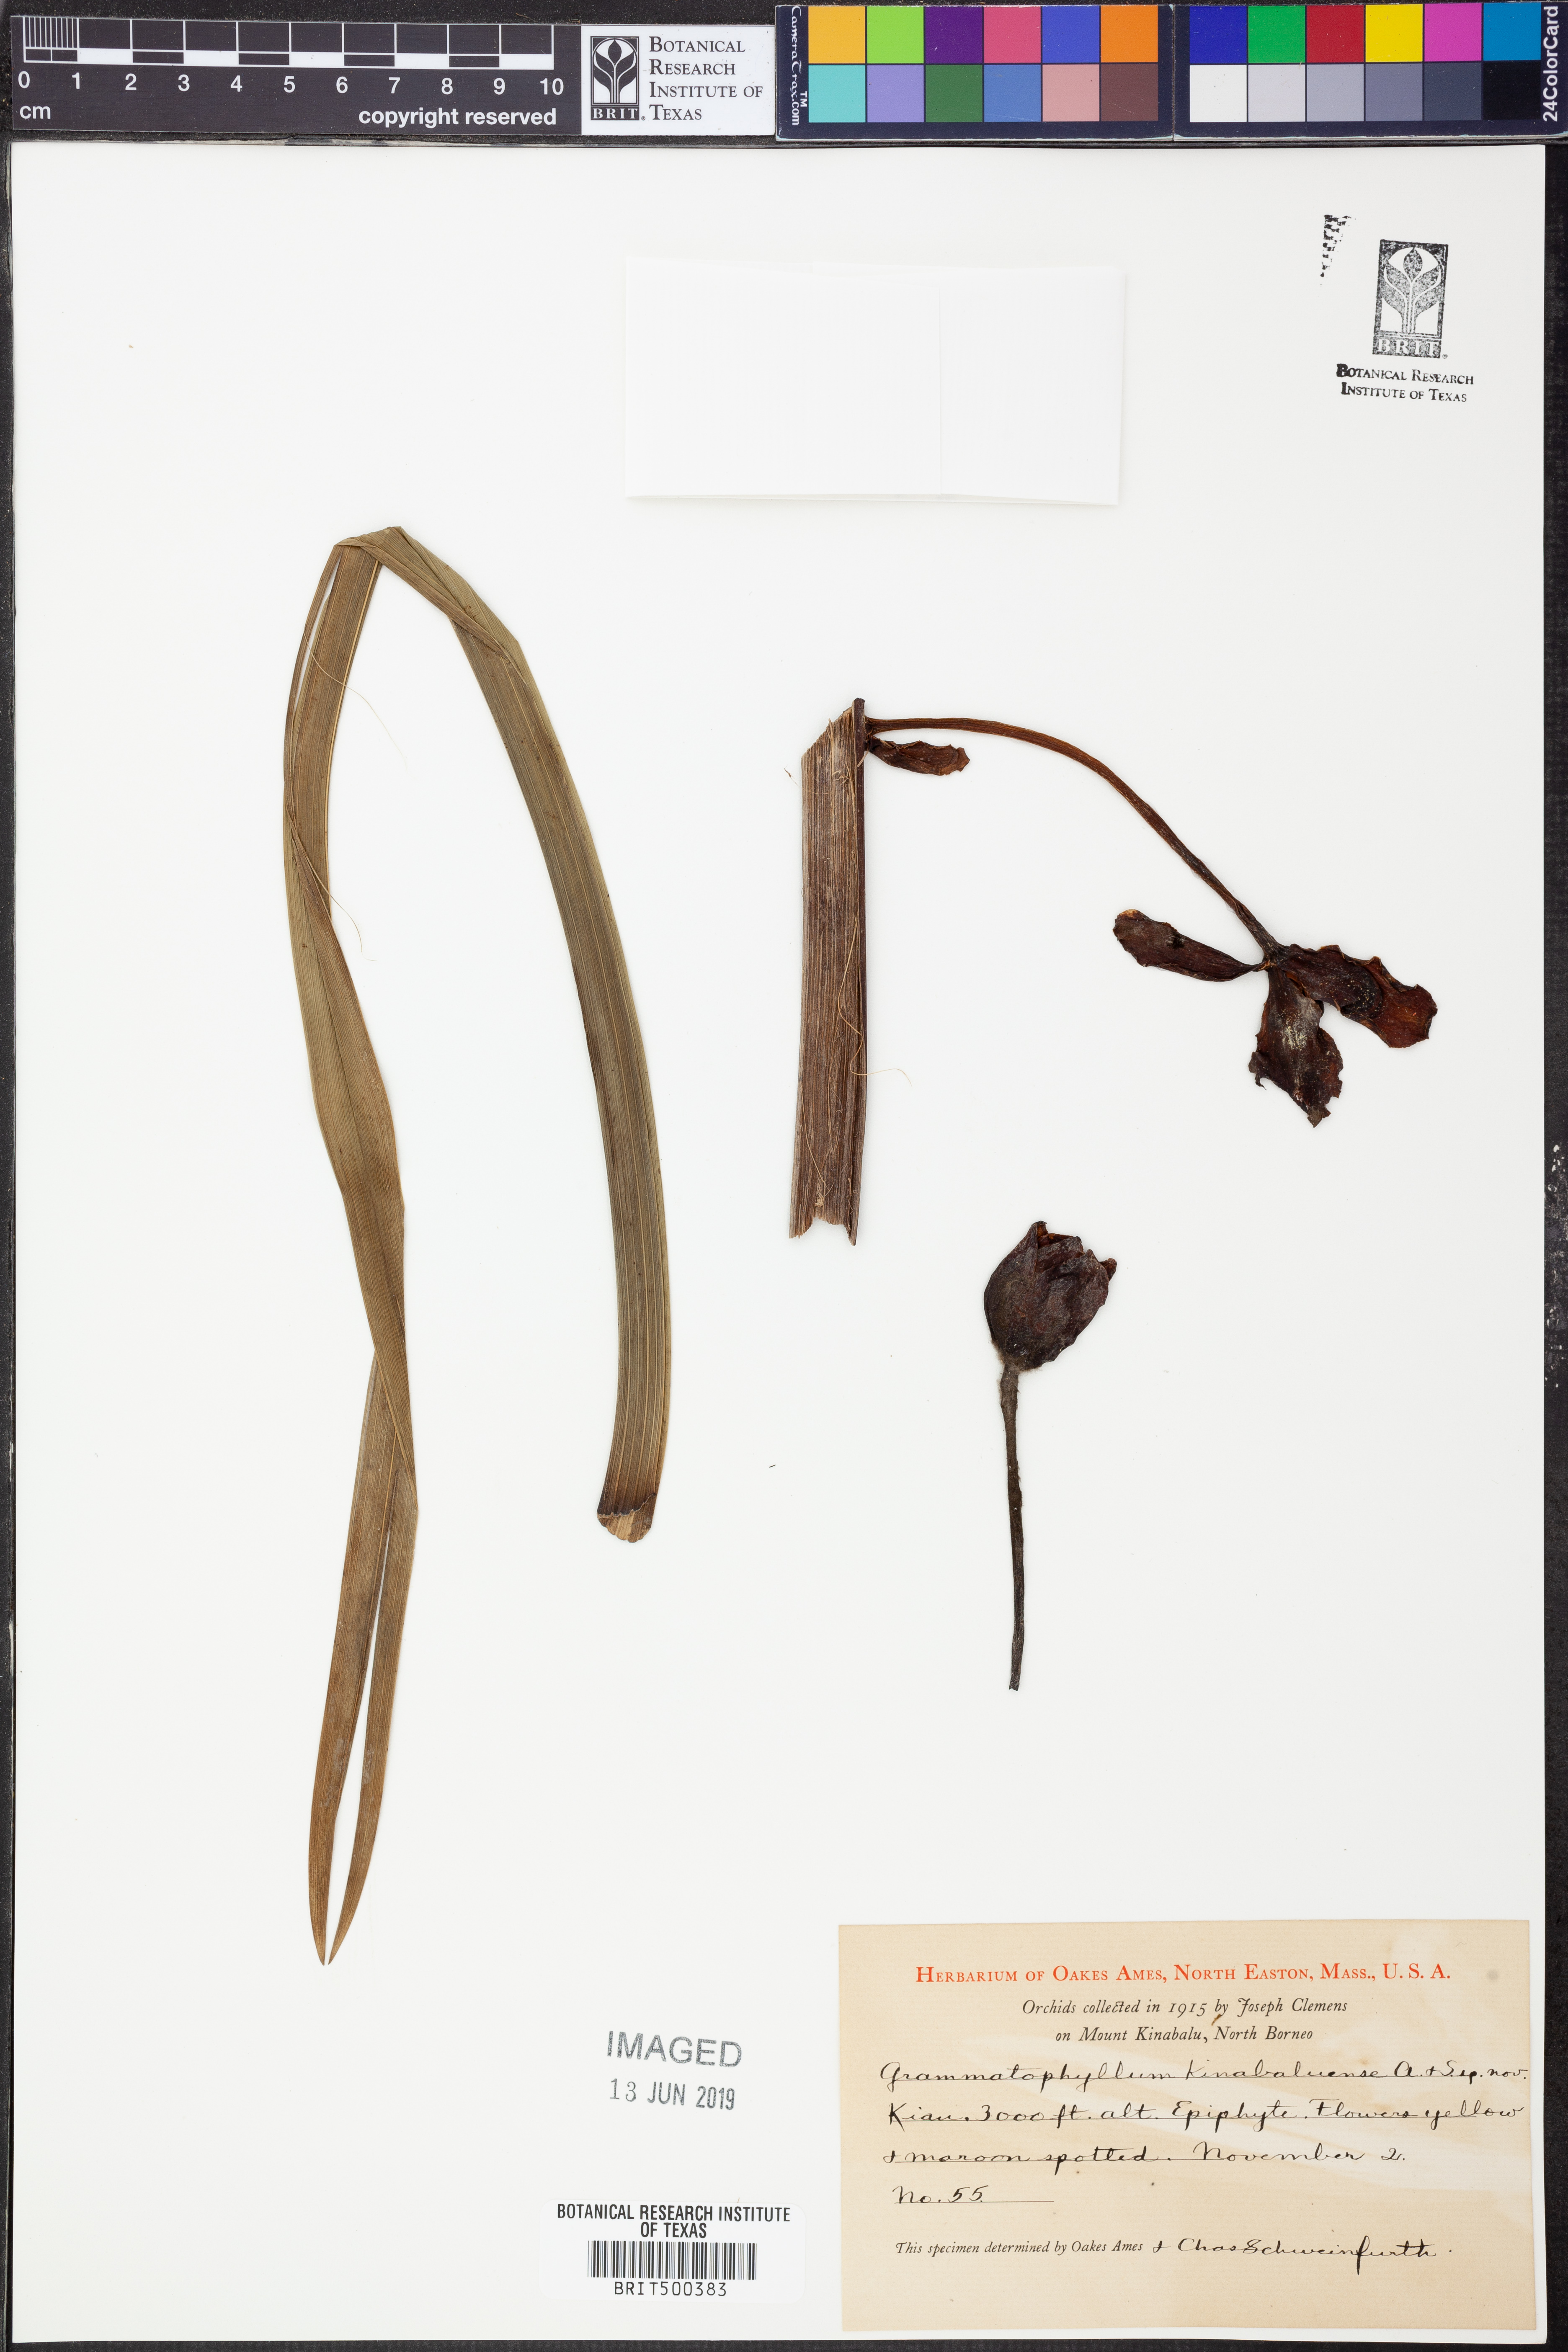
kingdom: Plantae
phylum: Tracheophyta
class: Liliopsida
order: Asparagales
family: Orchidaceae
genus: Grammatophyllum
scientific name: Grammatophyllum kinabaluense
